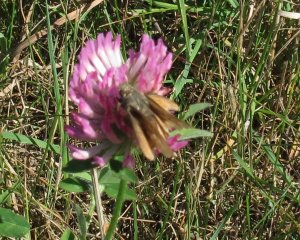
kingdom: Animalia
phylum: Arthropoda
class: Insecta
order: Lepidoptera
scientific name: Lepidoptera
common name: Butterflies
